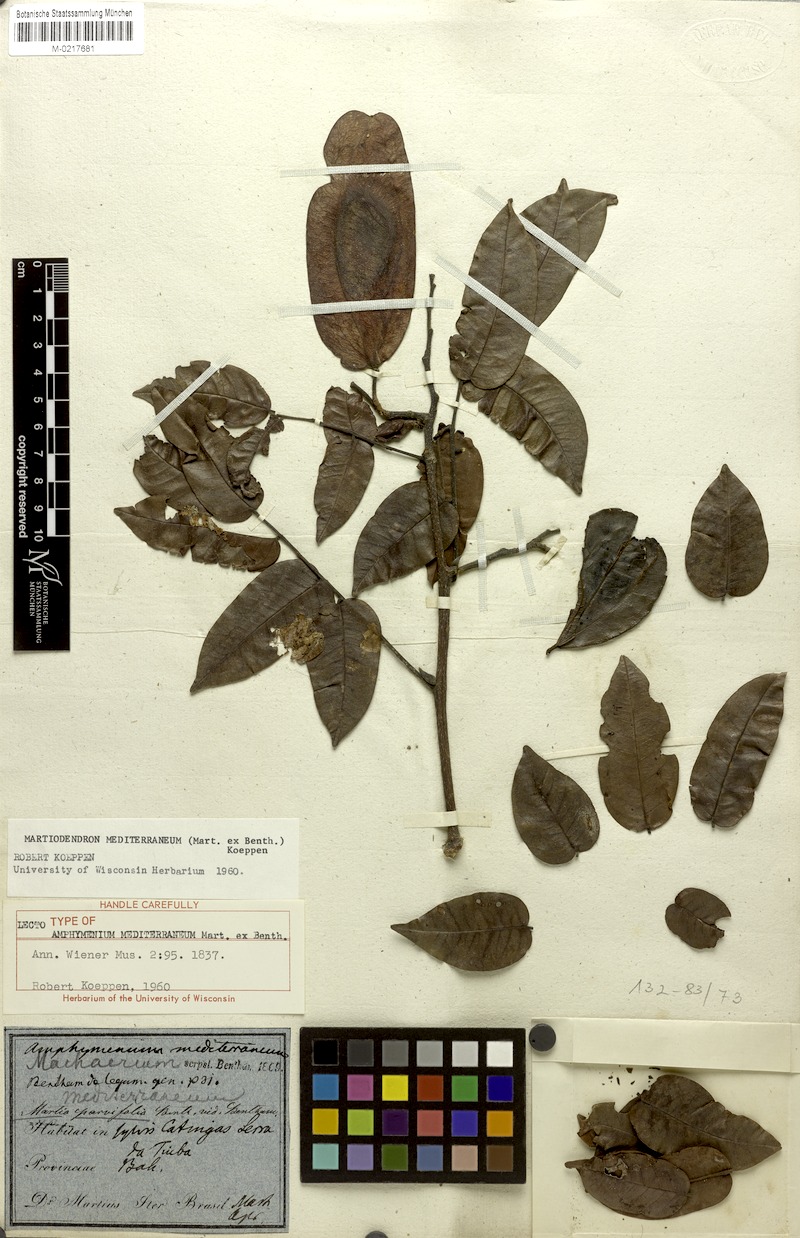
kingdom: Plantae
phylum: Tracheophyta
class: Magnoliopsida
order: Fabales
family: Fabaceae
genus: Martiodendron
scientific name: Martiodendron mediterraneum
